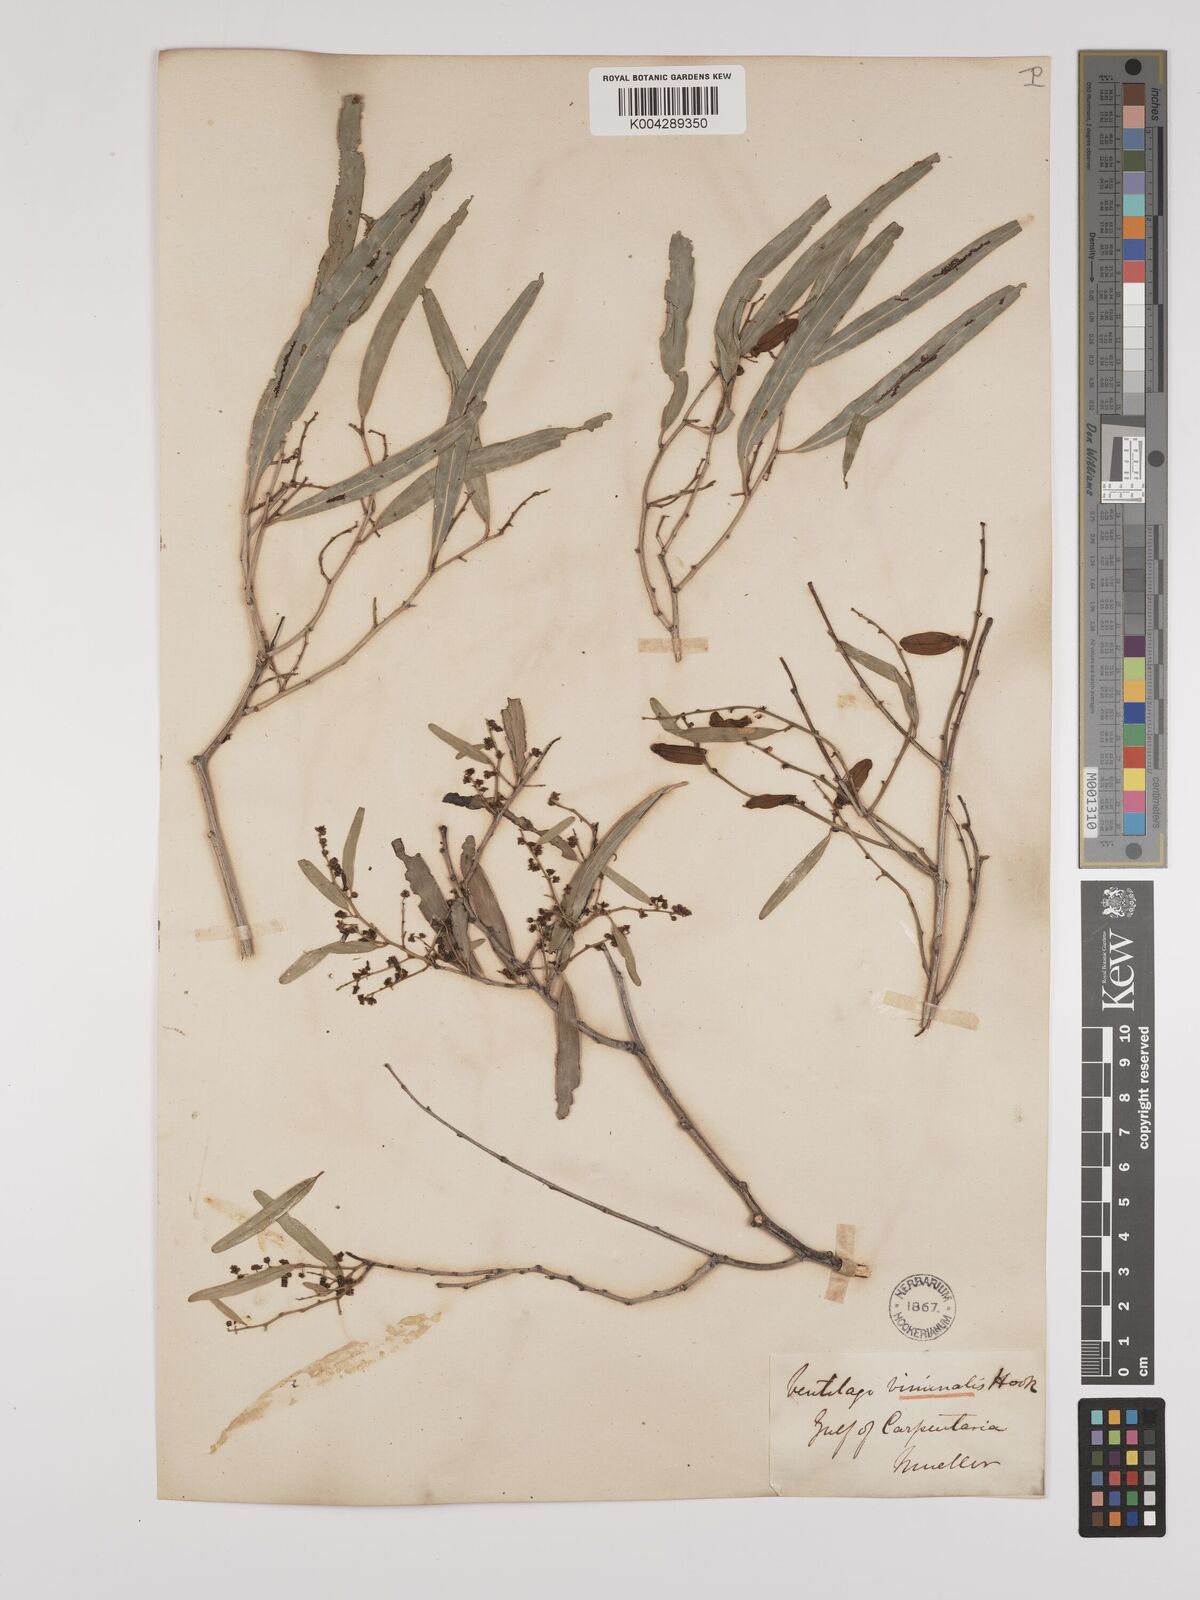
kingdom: Plantae
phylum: Tracheophyta
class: Magnoliopsida
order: Rosales
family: Rhamnaceae
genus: Ventilago
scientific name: Ventilago viminalis
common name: Medicine-bark
